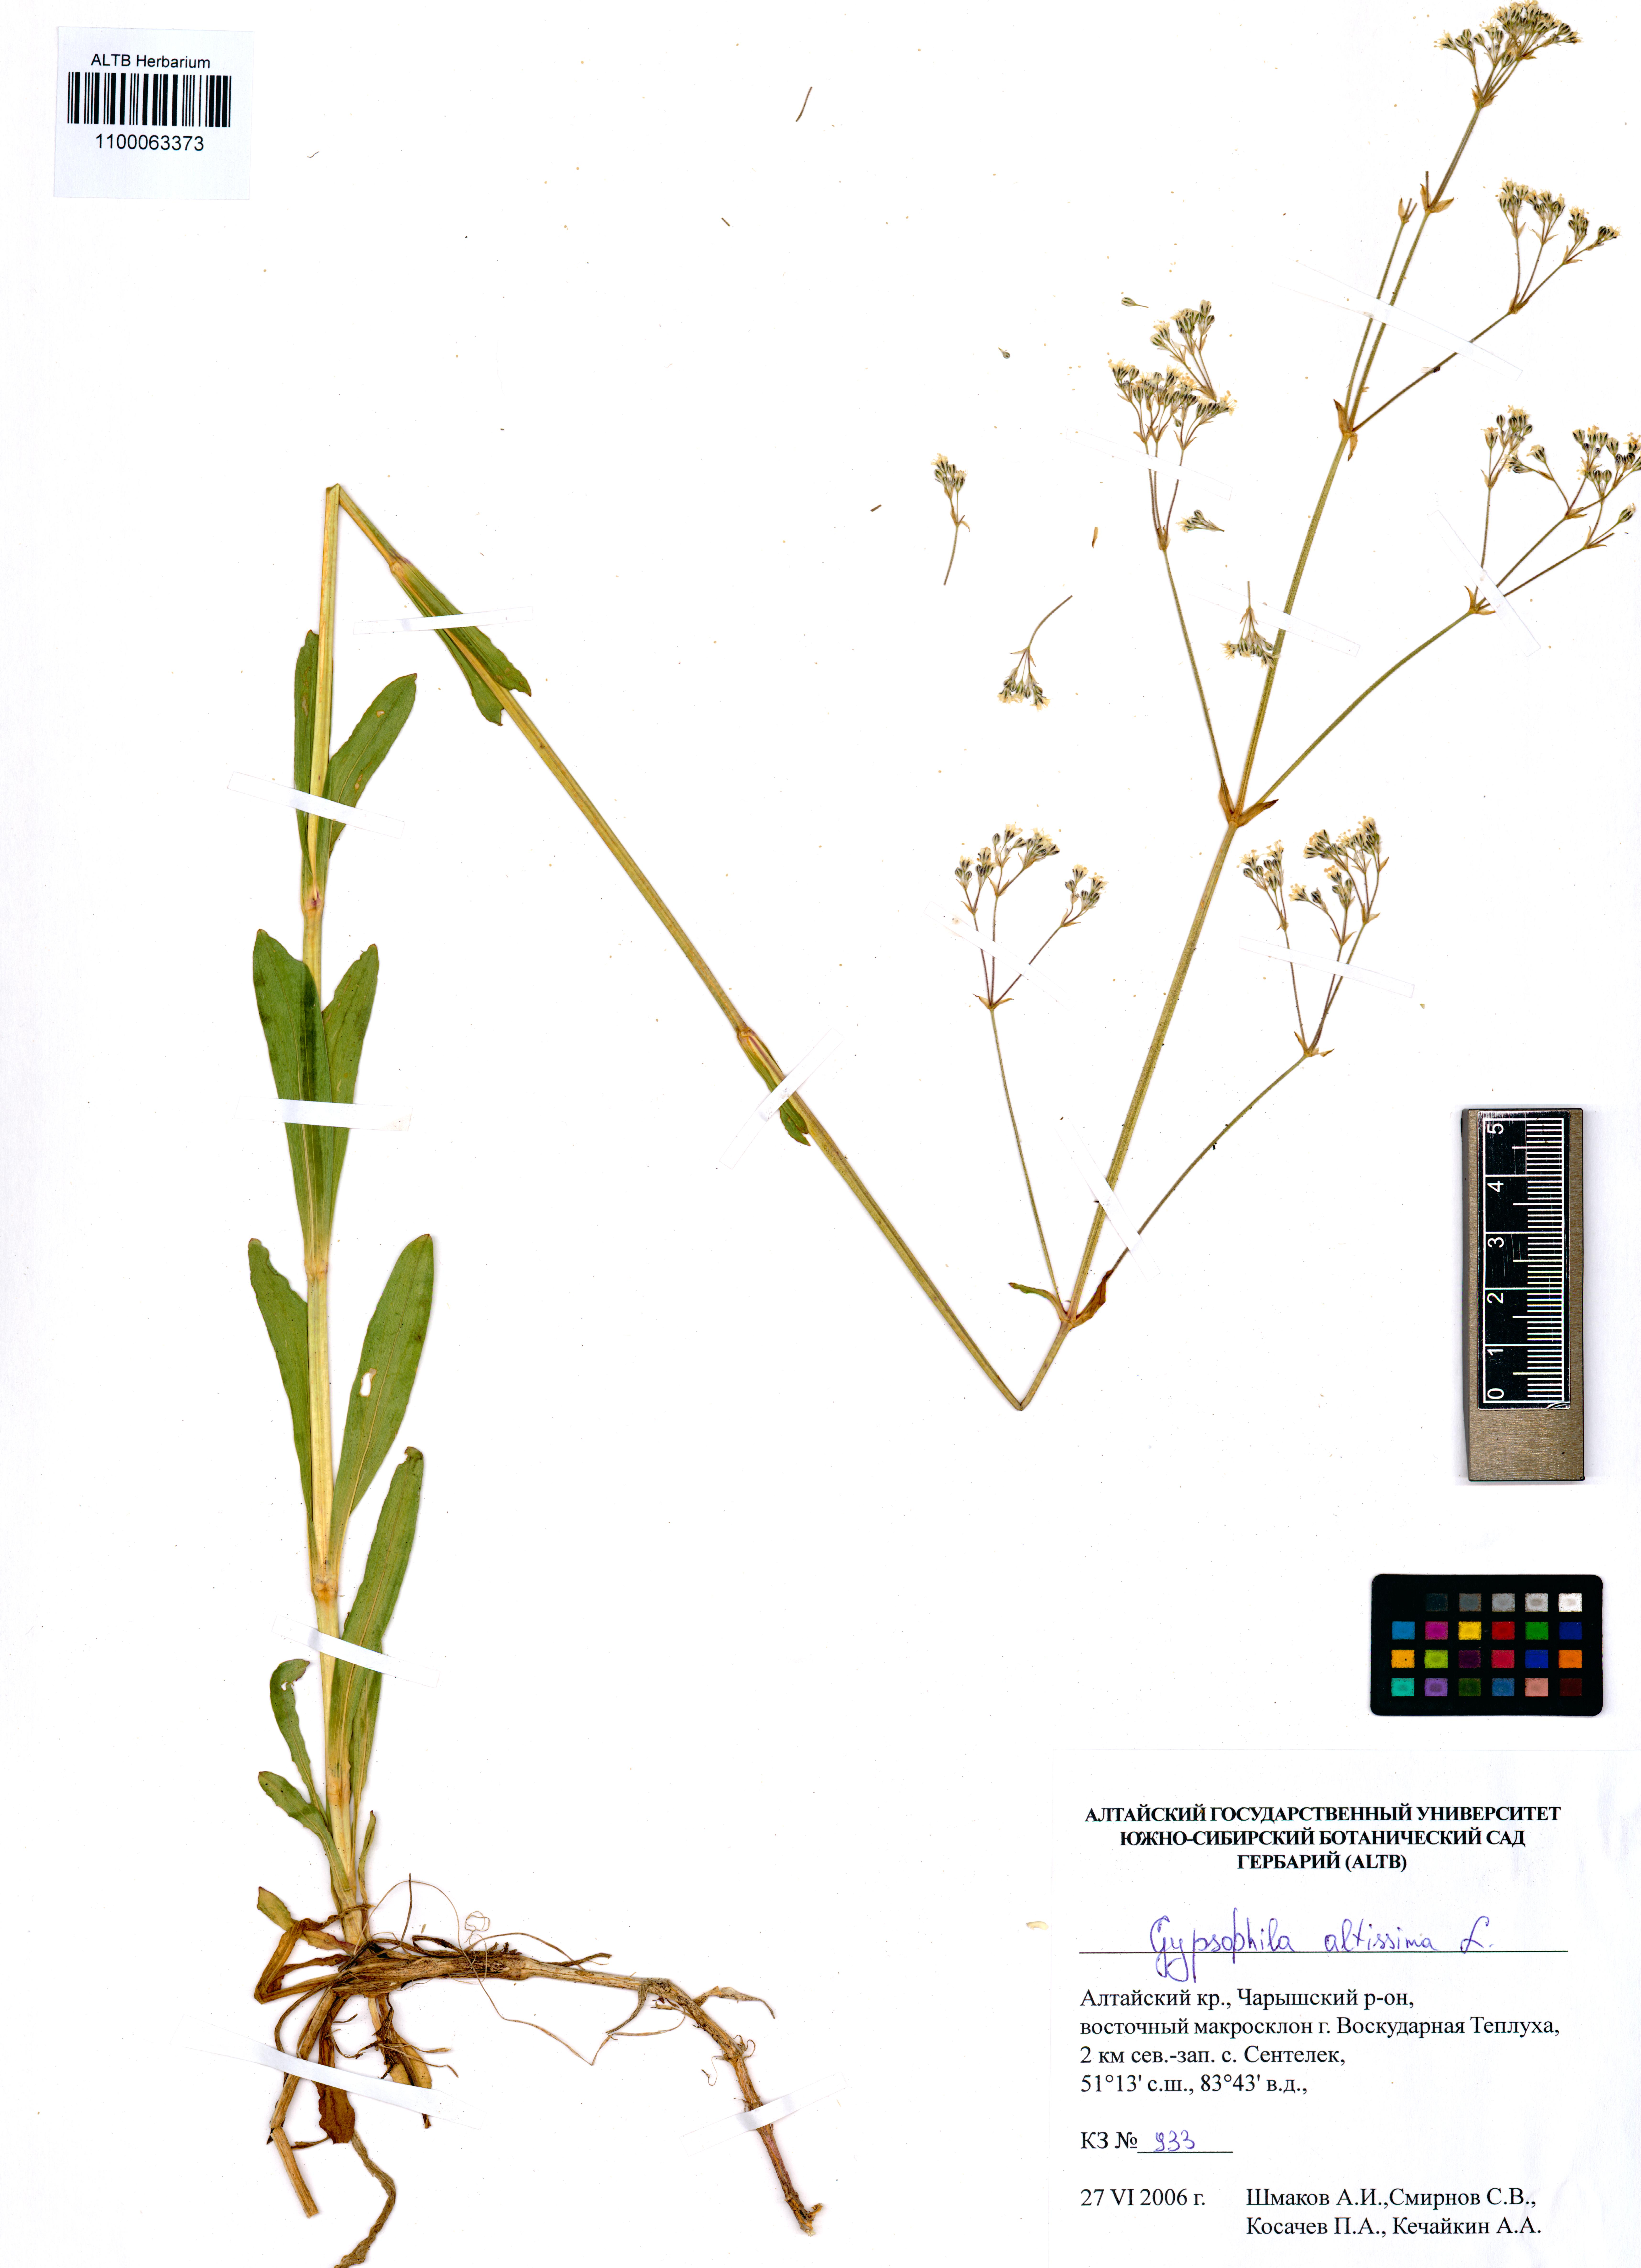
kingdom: Plantae
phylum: Tracheophyta
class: Magnoliopsida
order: Caryophyllales
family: Caryophyllaceae
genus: Gypsophila
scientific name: Gypsophila altissima
